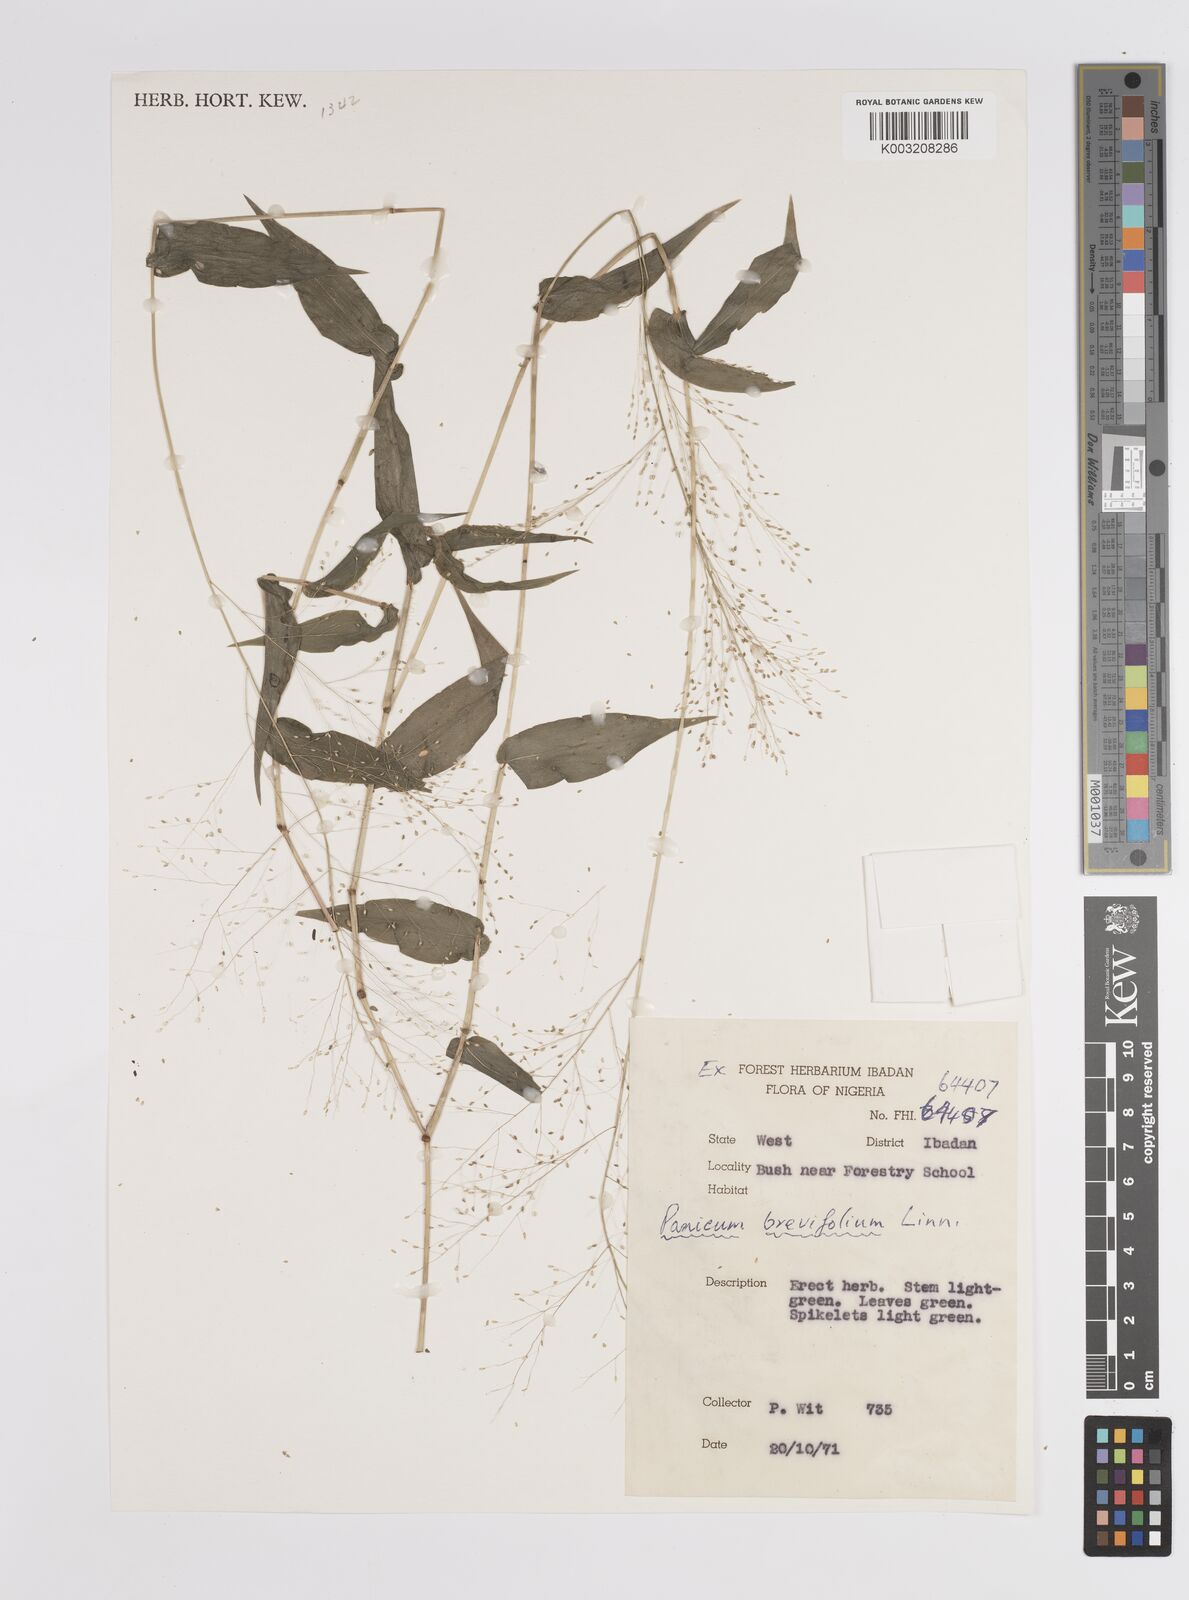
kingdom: Plantae
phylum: Tracheophyta
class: Liliopsida
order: Poales
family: Poaceae
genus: Panicum
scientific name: Panicum brevifolium
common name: Shortleaf panic grass
